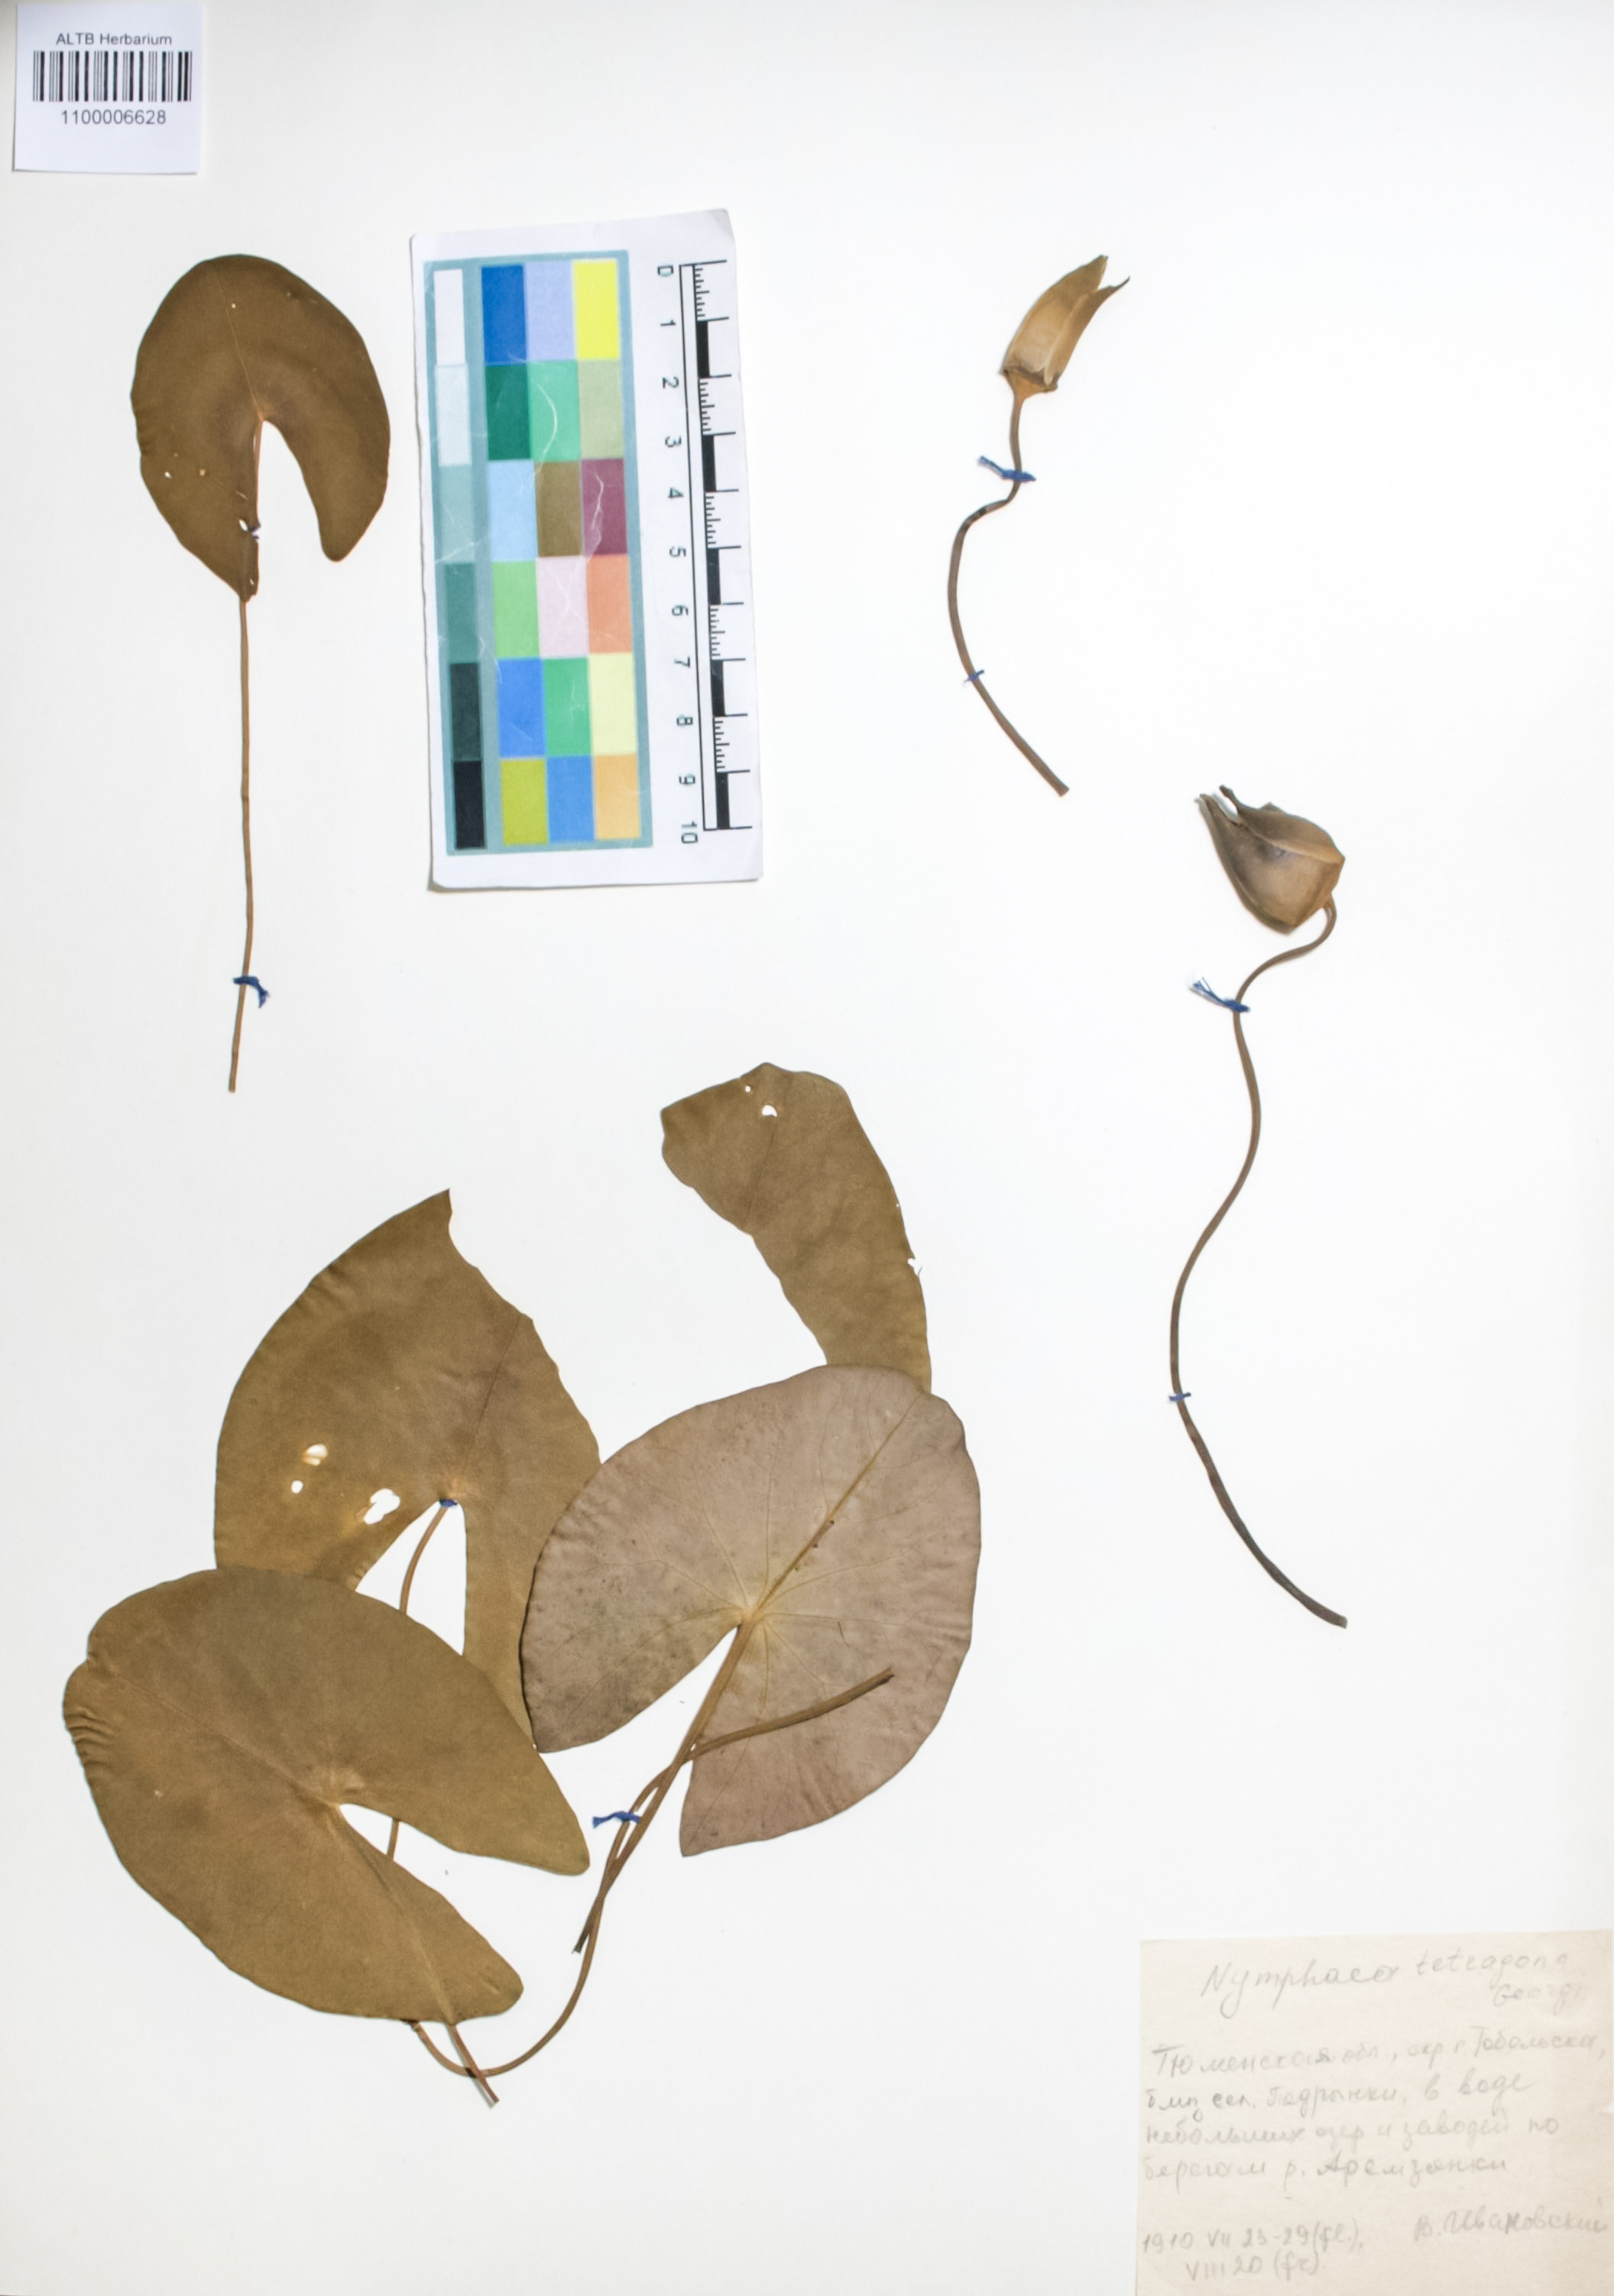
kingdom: Plantae
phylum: Tracheophyta
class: Magnoliopsida
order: Nymphaeales
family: Nymphaeaceae
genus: Nymphaea
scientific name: Nymphaea tetragona
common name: Pygmy water-lily
